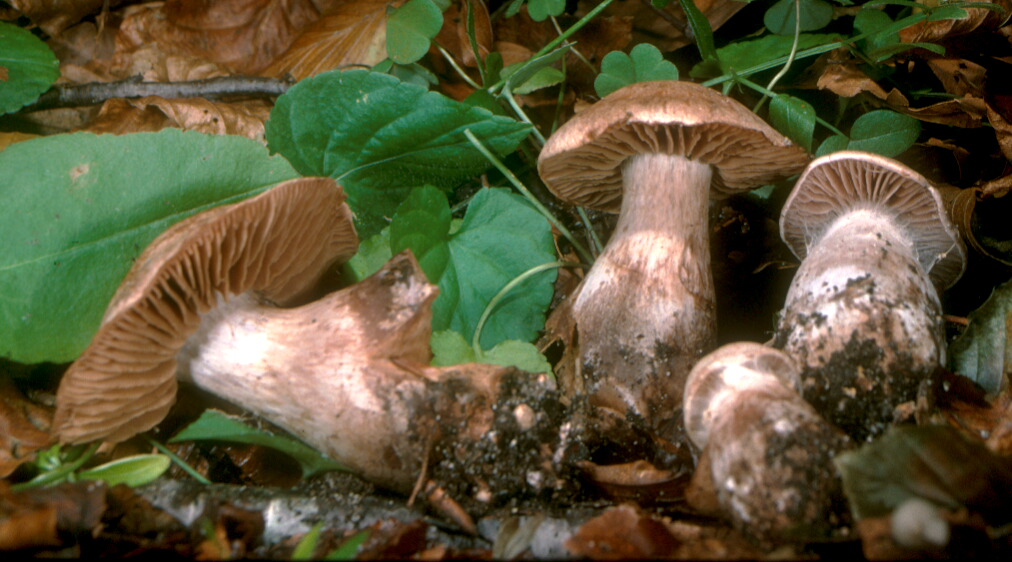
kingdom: Fungi
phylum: Basidiomycota
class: Agaricomycetes
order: Agaricales
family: Cortinariaceae
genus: Cortinarius
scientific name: Cortinarius
